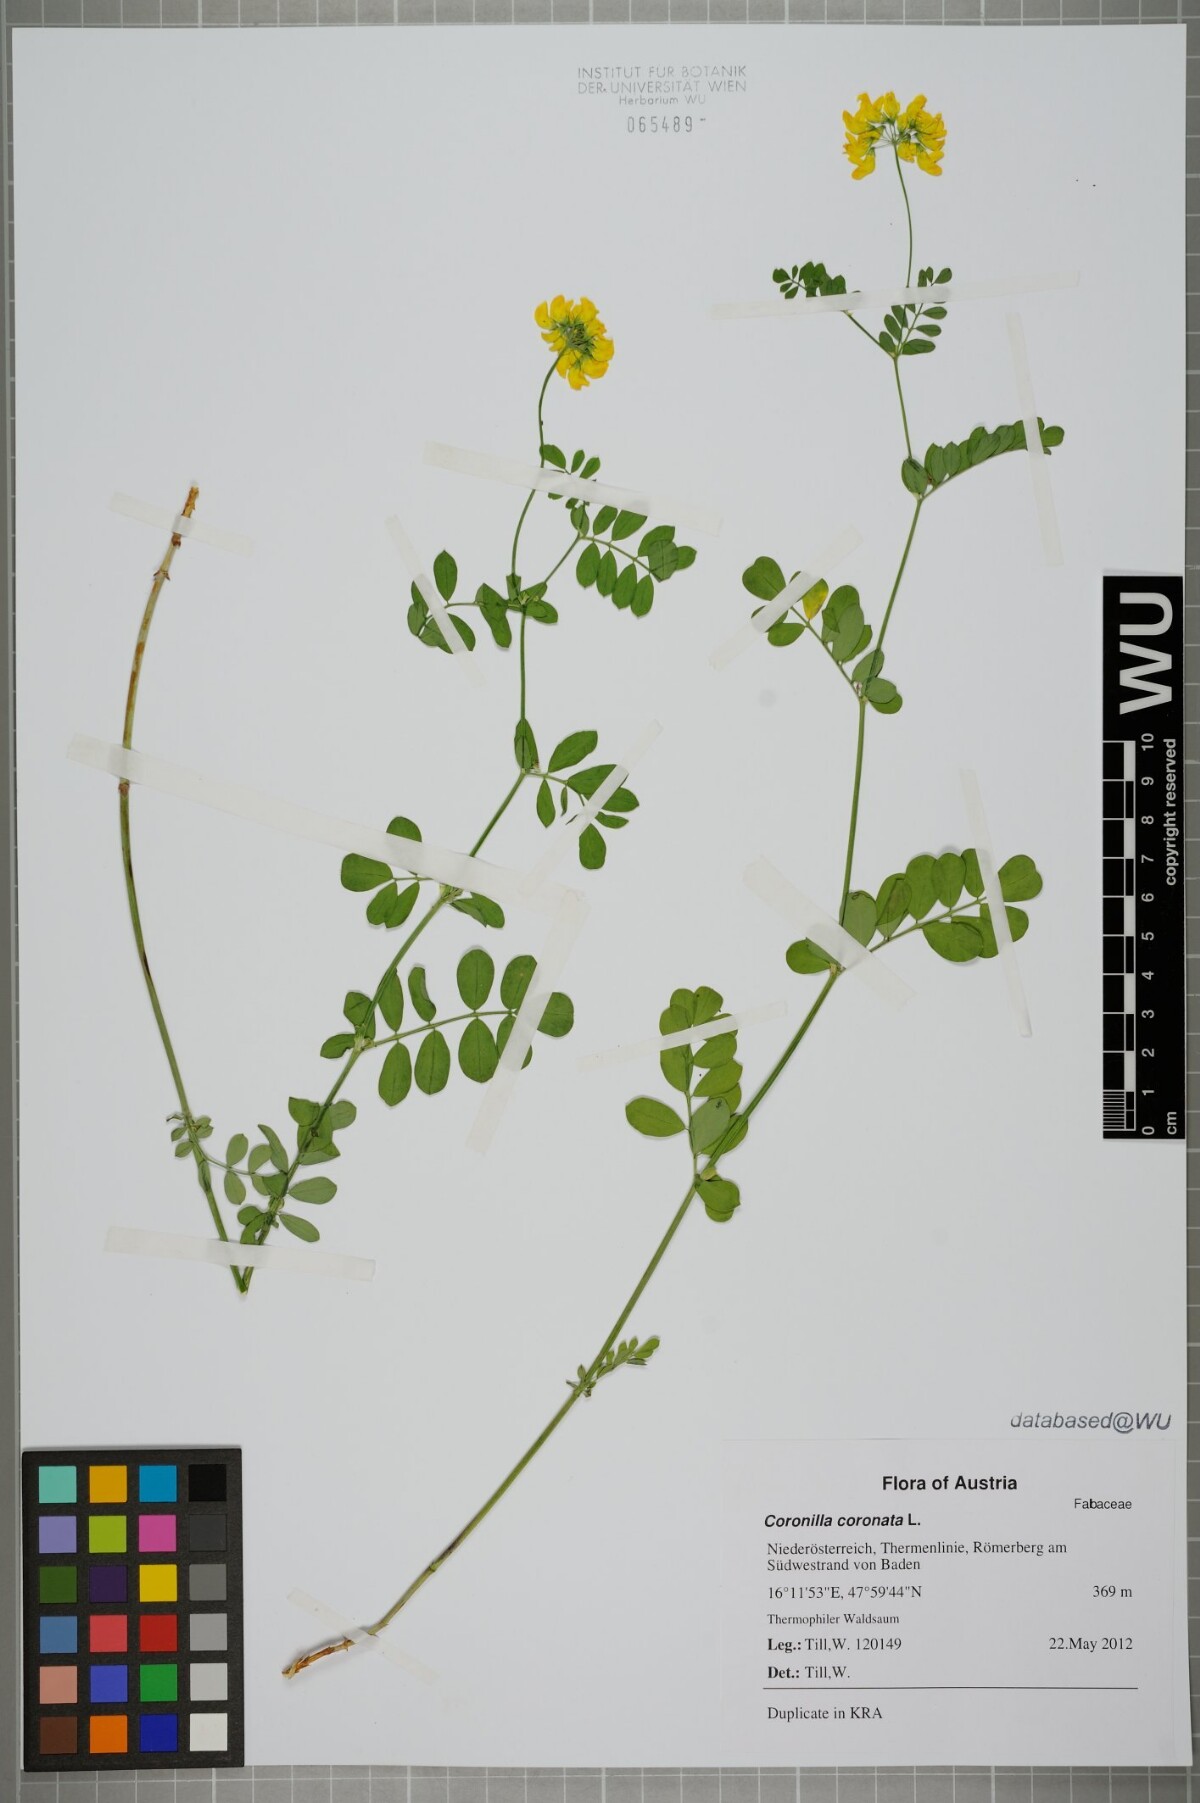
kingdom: Plantae
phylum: Tracheophyta
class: Magnoliopsida
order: Fabales
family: Fabaceae
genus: Coronilla
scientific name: Coronilla coronata
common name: Scorpion-vetch
